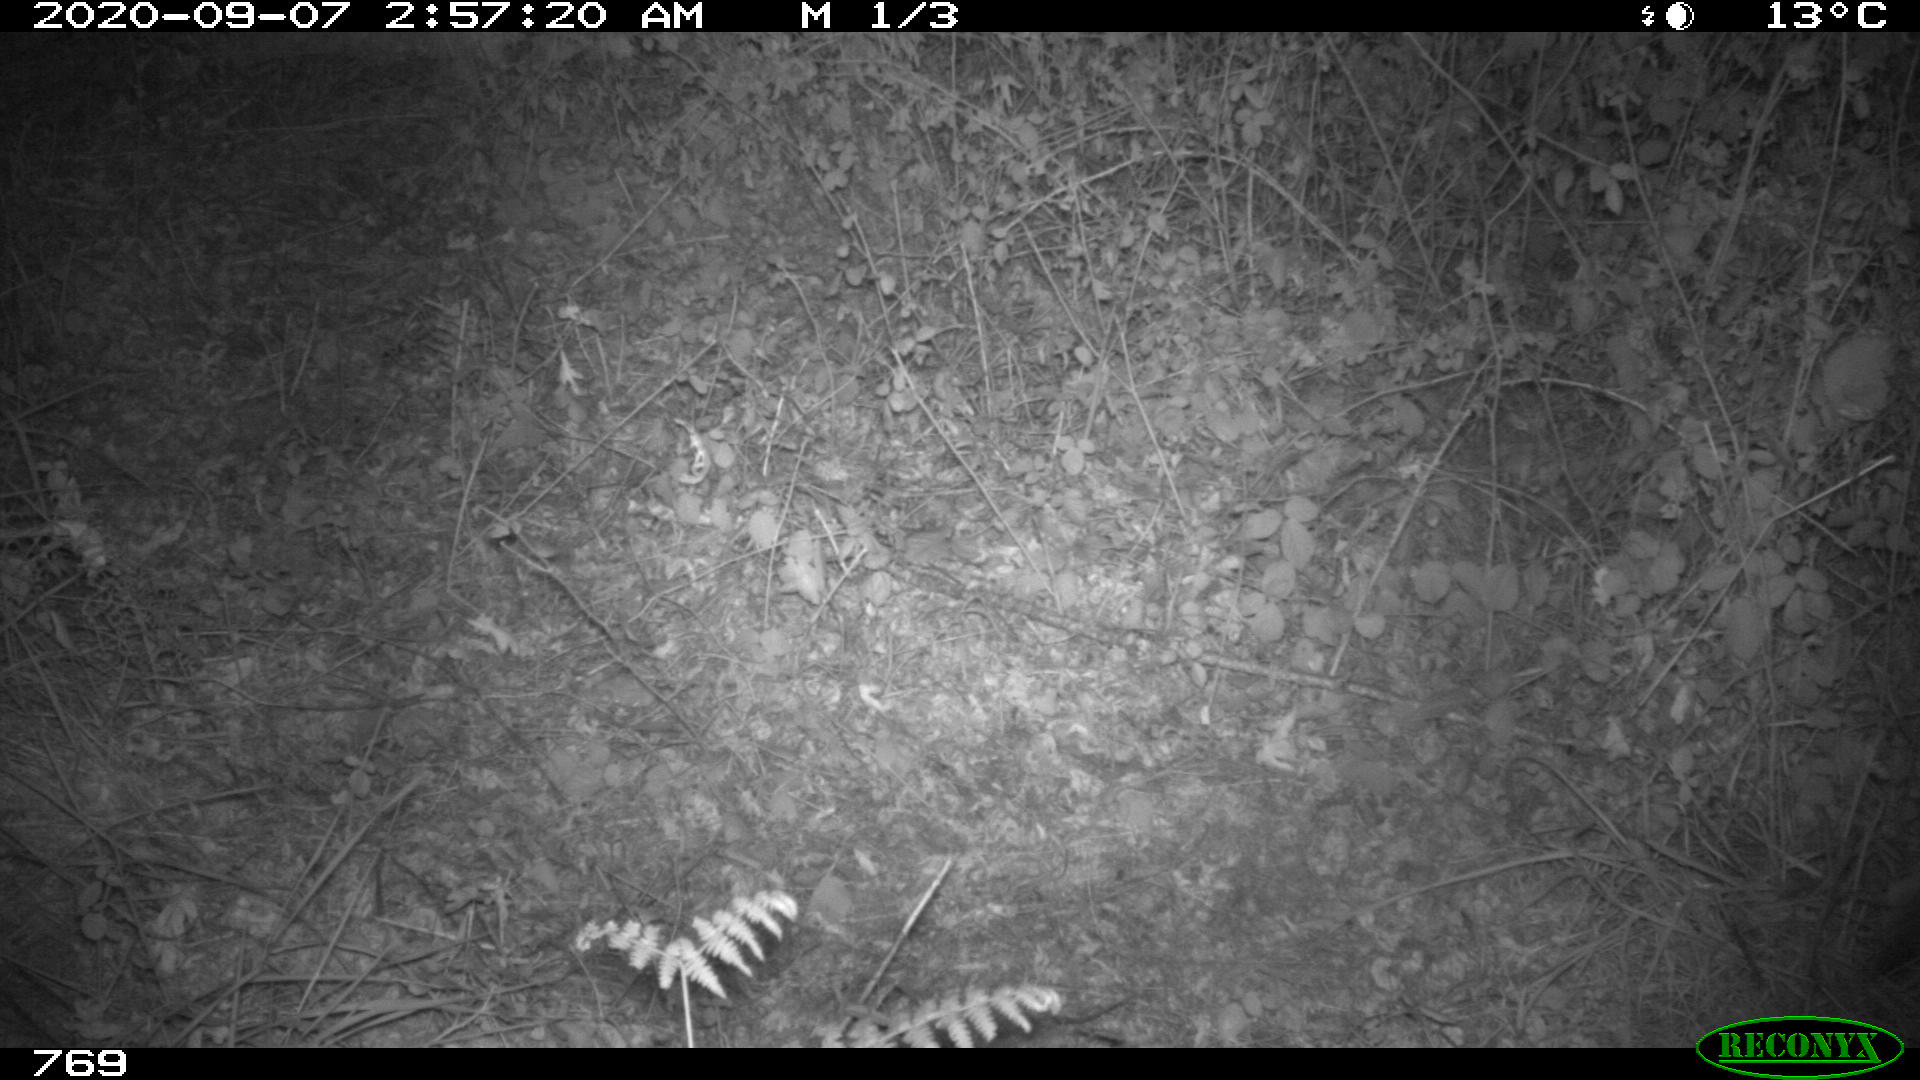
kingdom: Animalia
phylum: Chordata
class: Mammalia
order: Artiodactyla
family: Cervidae
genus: Capreolus
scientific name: Capreolus capreolus
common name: Western roe deer
